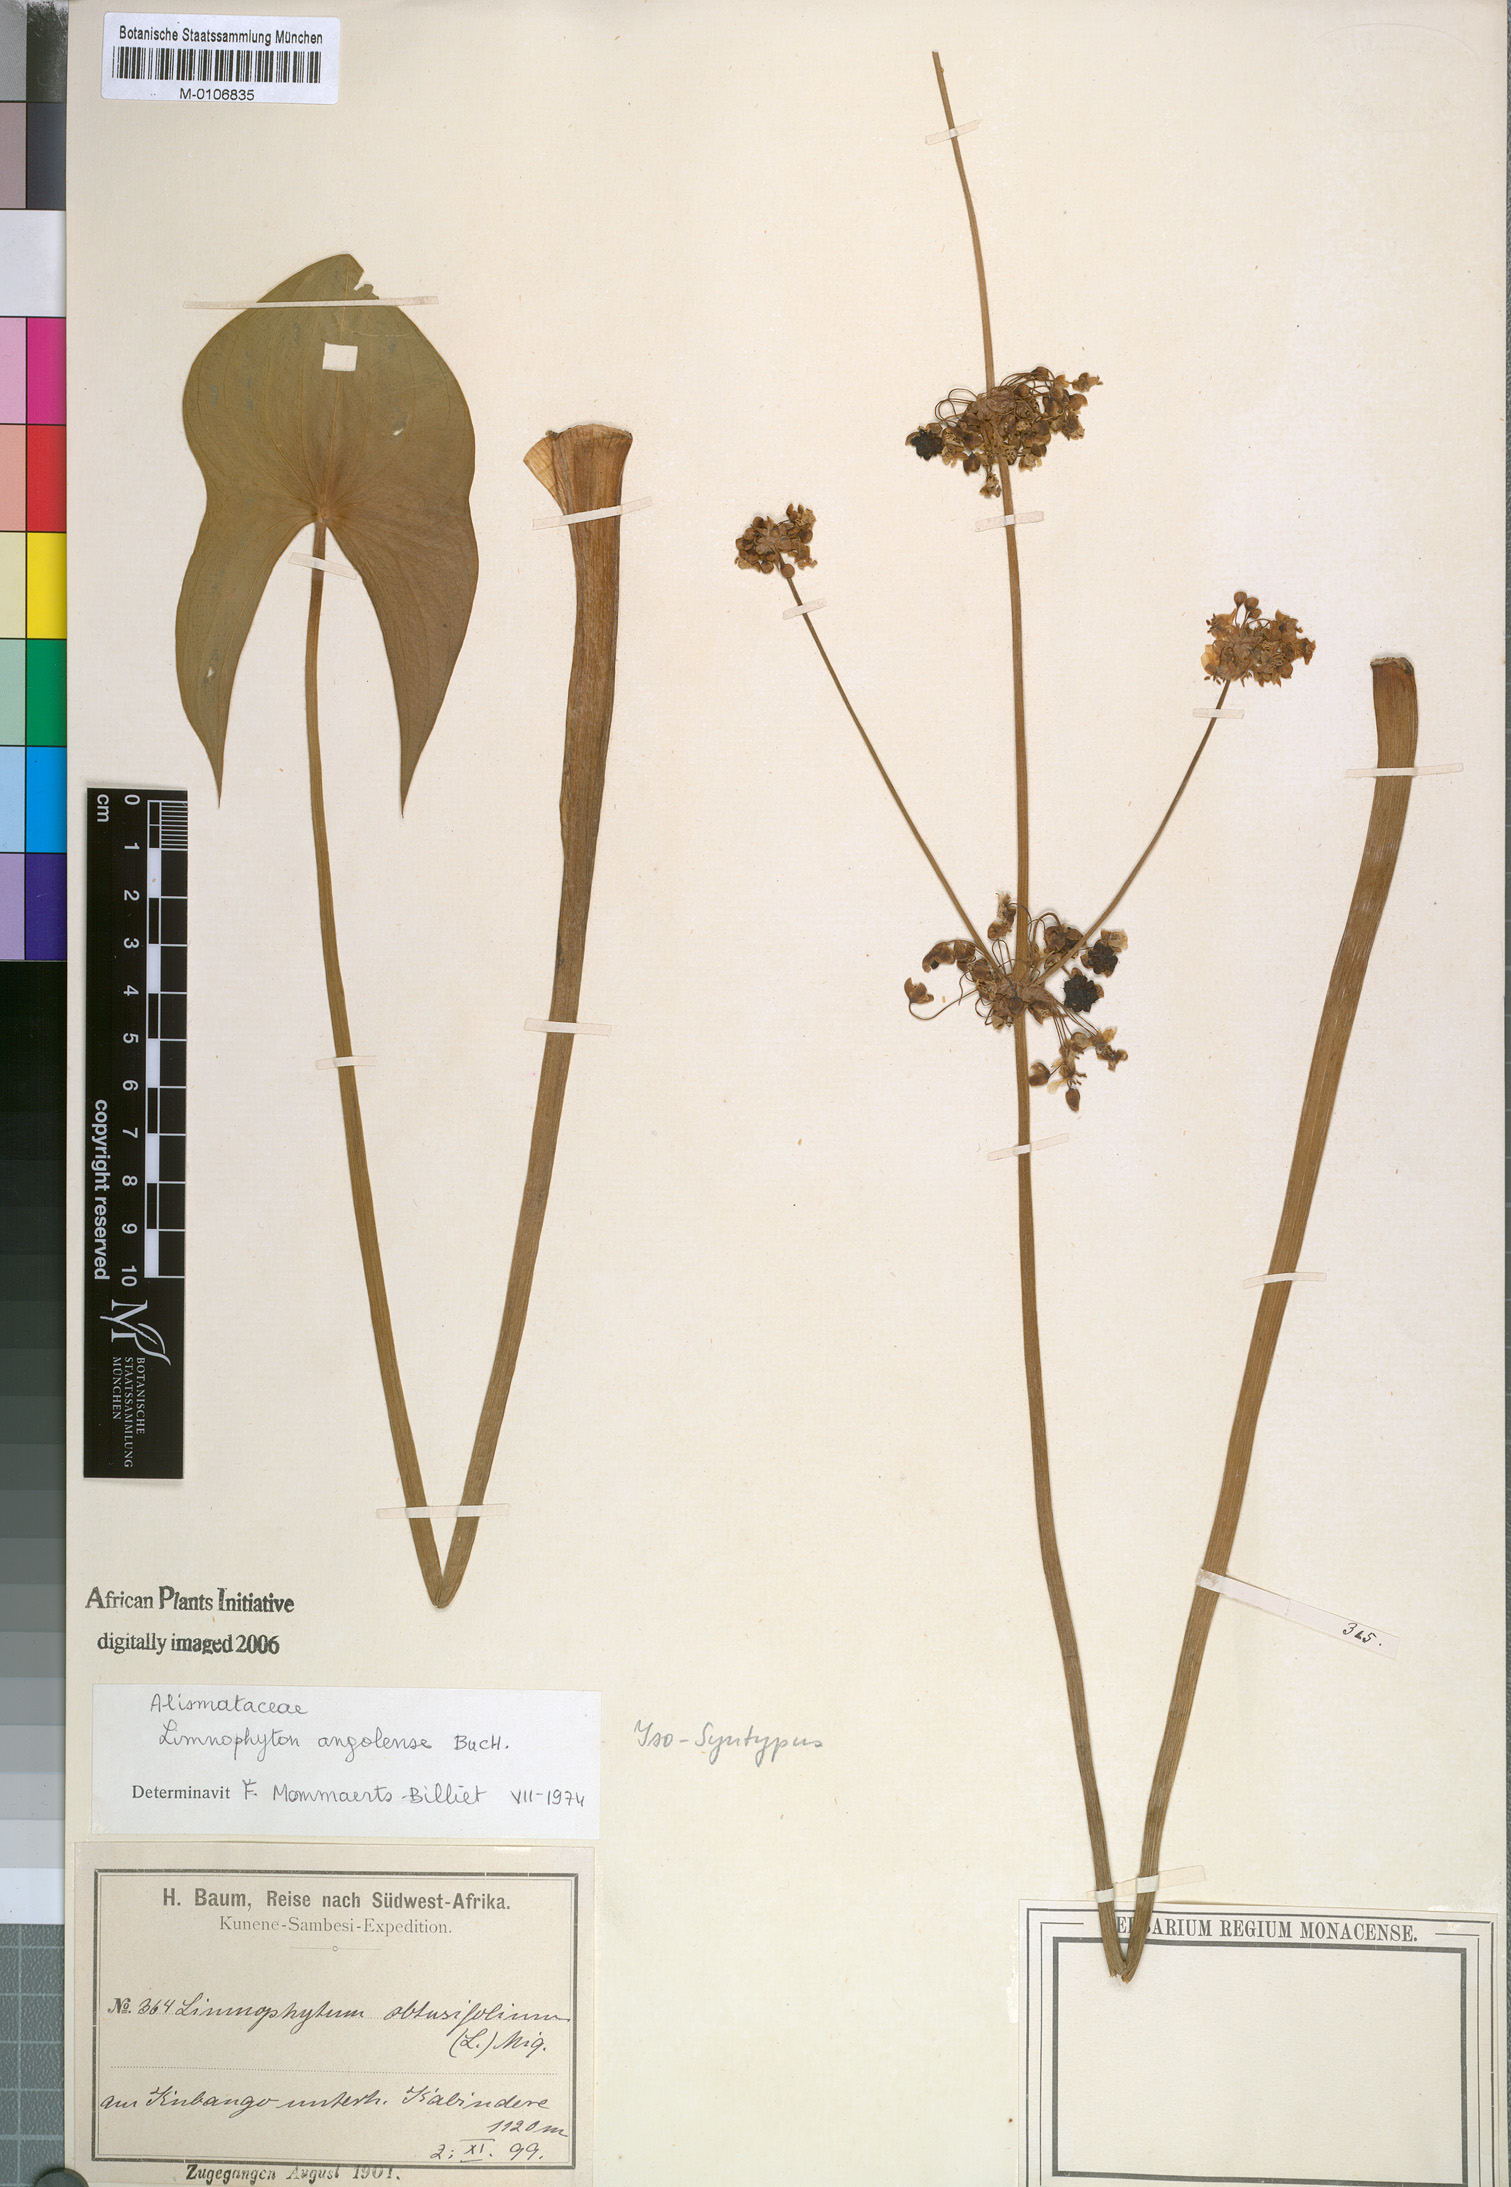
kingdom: Plantae
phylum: Tracheophyta
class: Liliopsida
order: Alismatales
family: Alismataceae
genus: Limnophyton
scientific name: Limnophyton angolense
